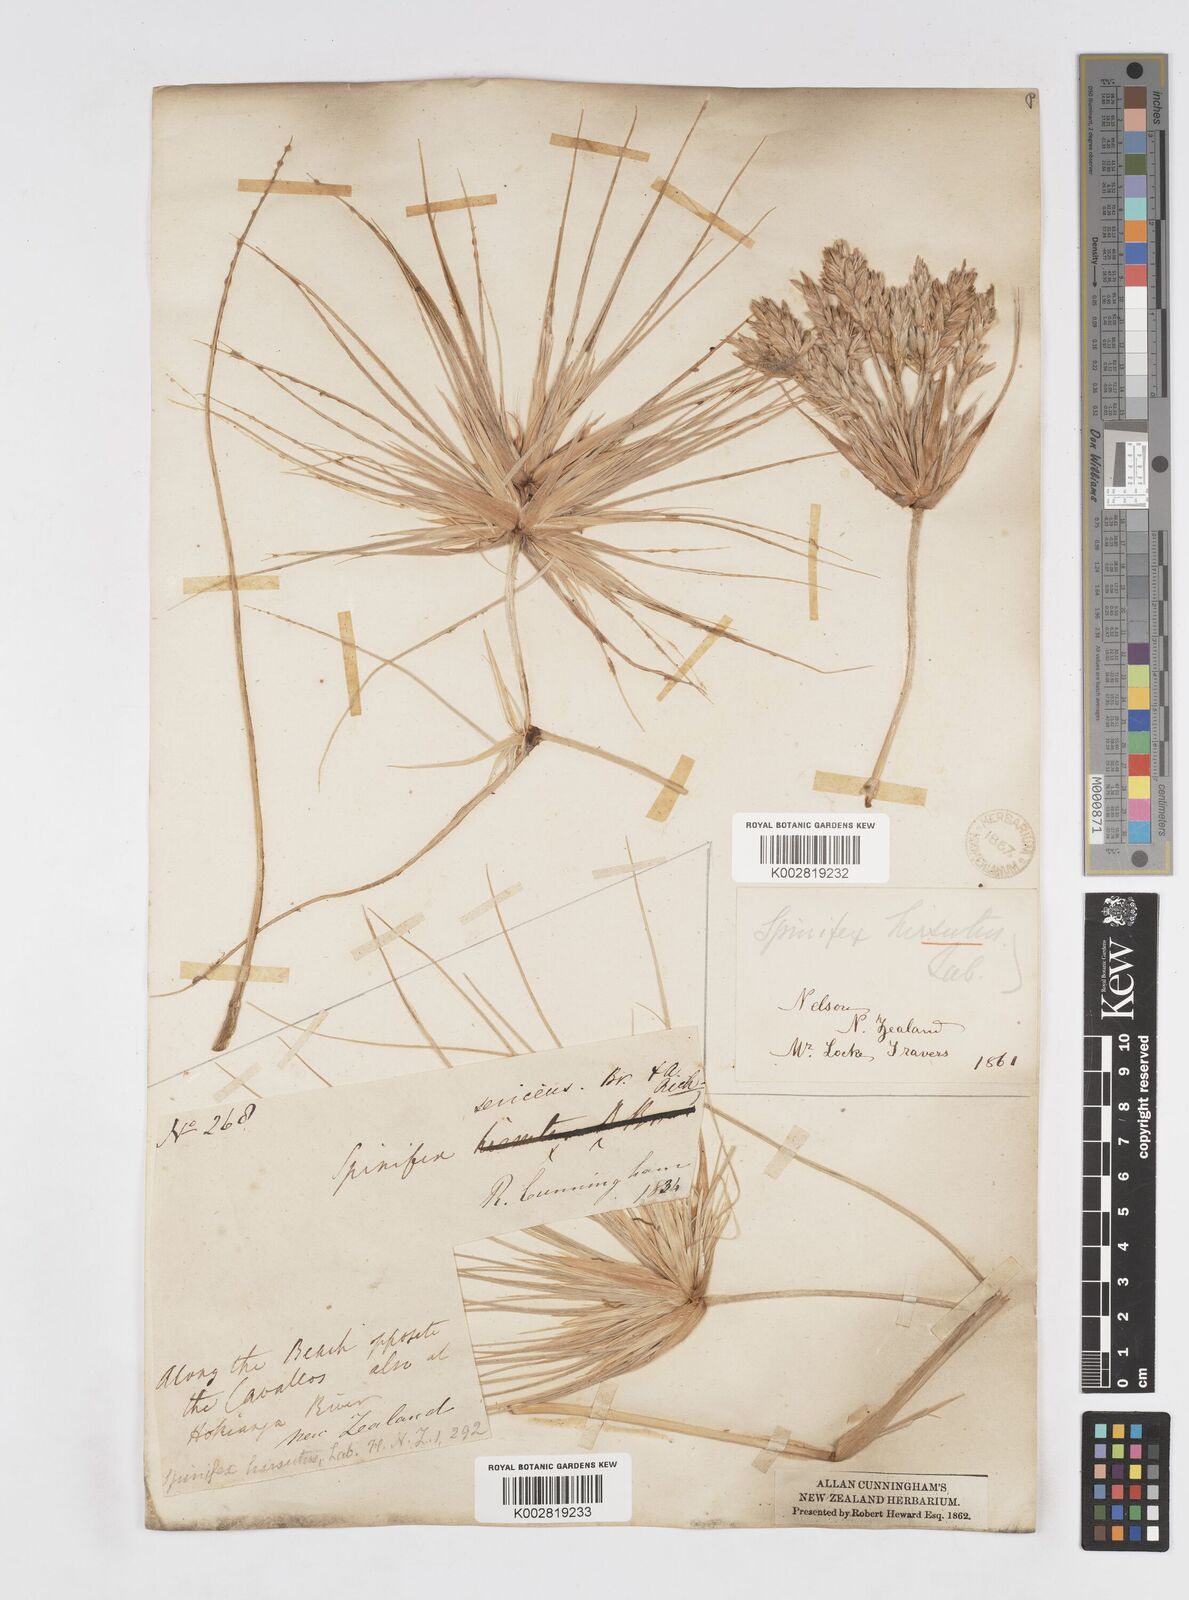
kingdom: Plantae
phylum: Tracheophyta
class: Liliopsida
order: Poales
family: Poaceae
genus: Spinifex
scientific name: Spinifex sericeus
